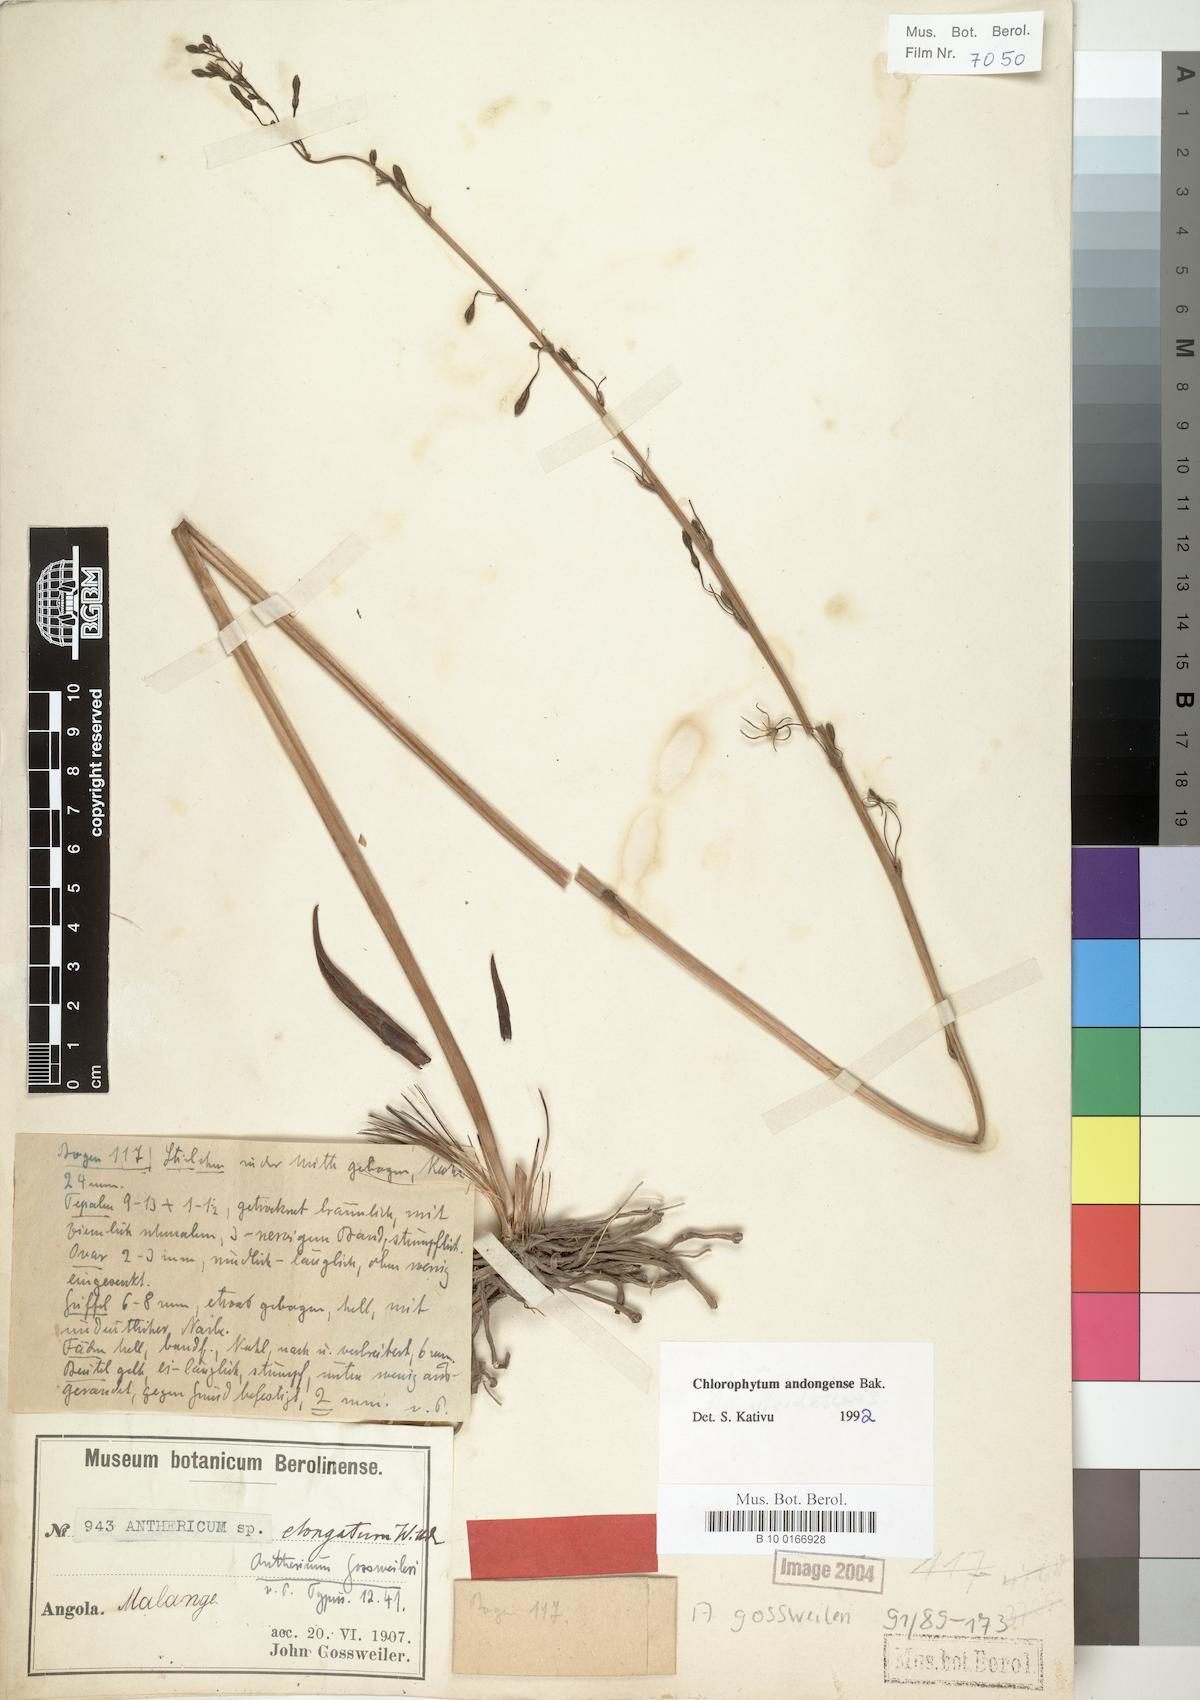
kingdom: Plantae
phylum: Tracheophyta
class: Liliopsida
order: Asparagales
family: Asparagaceae
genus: Chlorophytum
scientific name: Chlorophytum andongense
